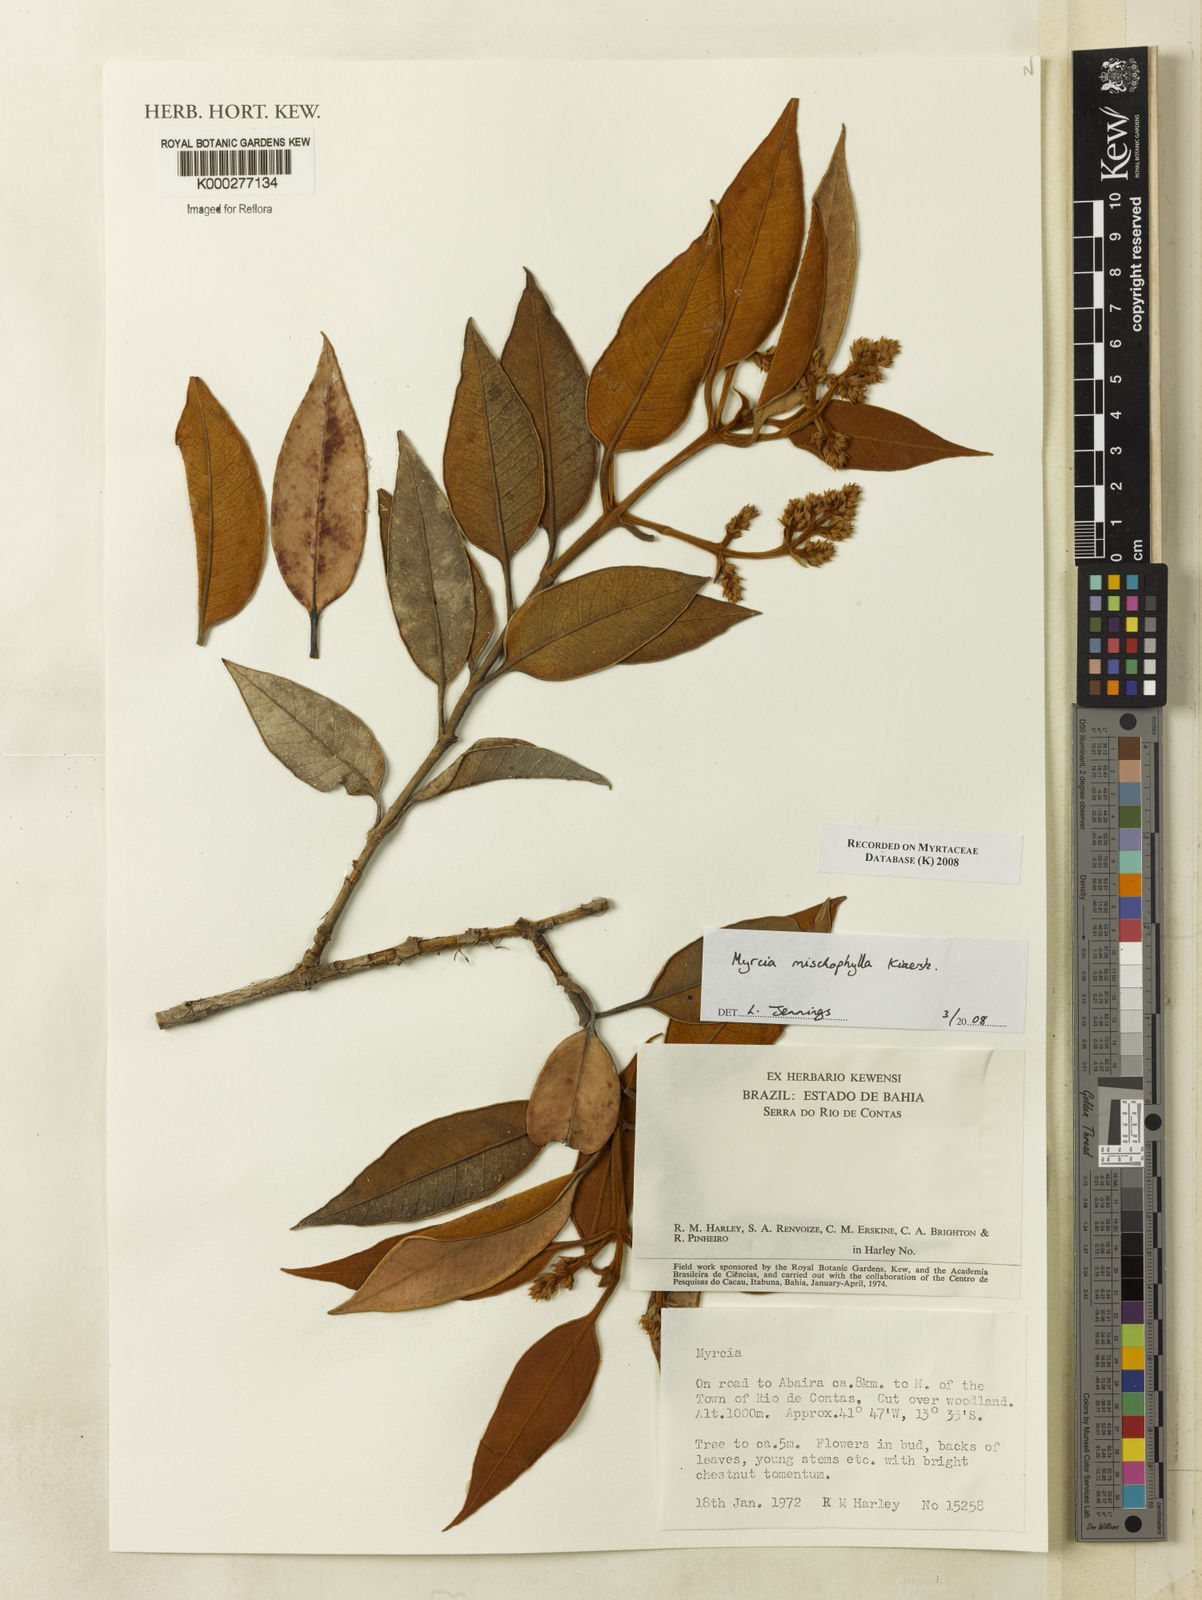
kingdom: Plantae
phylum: Tracheophyta
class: Magnoliopsida
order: Myrtales
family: Myrtaceae
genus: Myrcia
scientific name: Myrcia mischophylla
